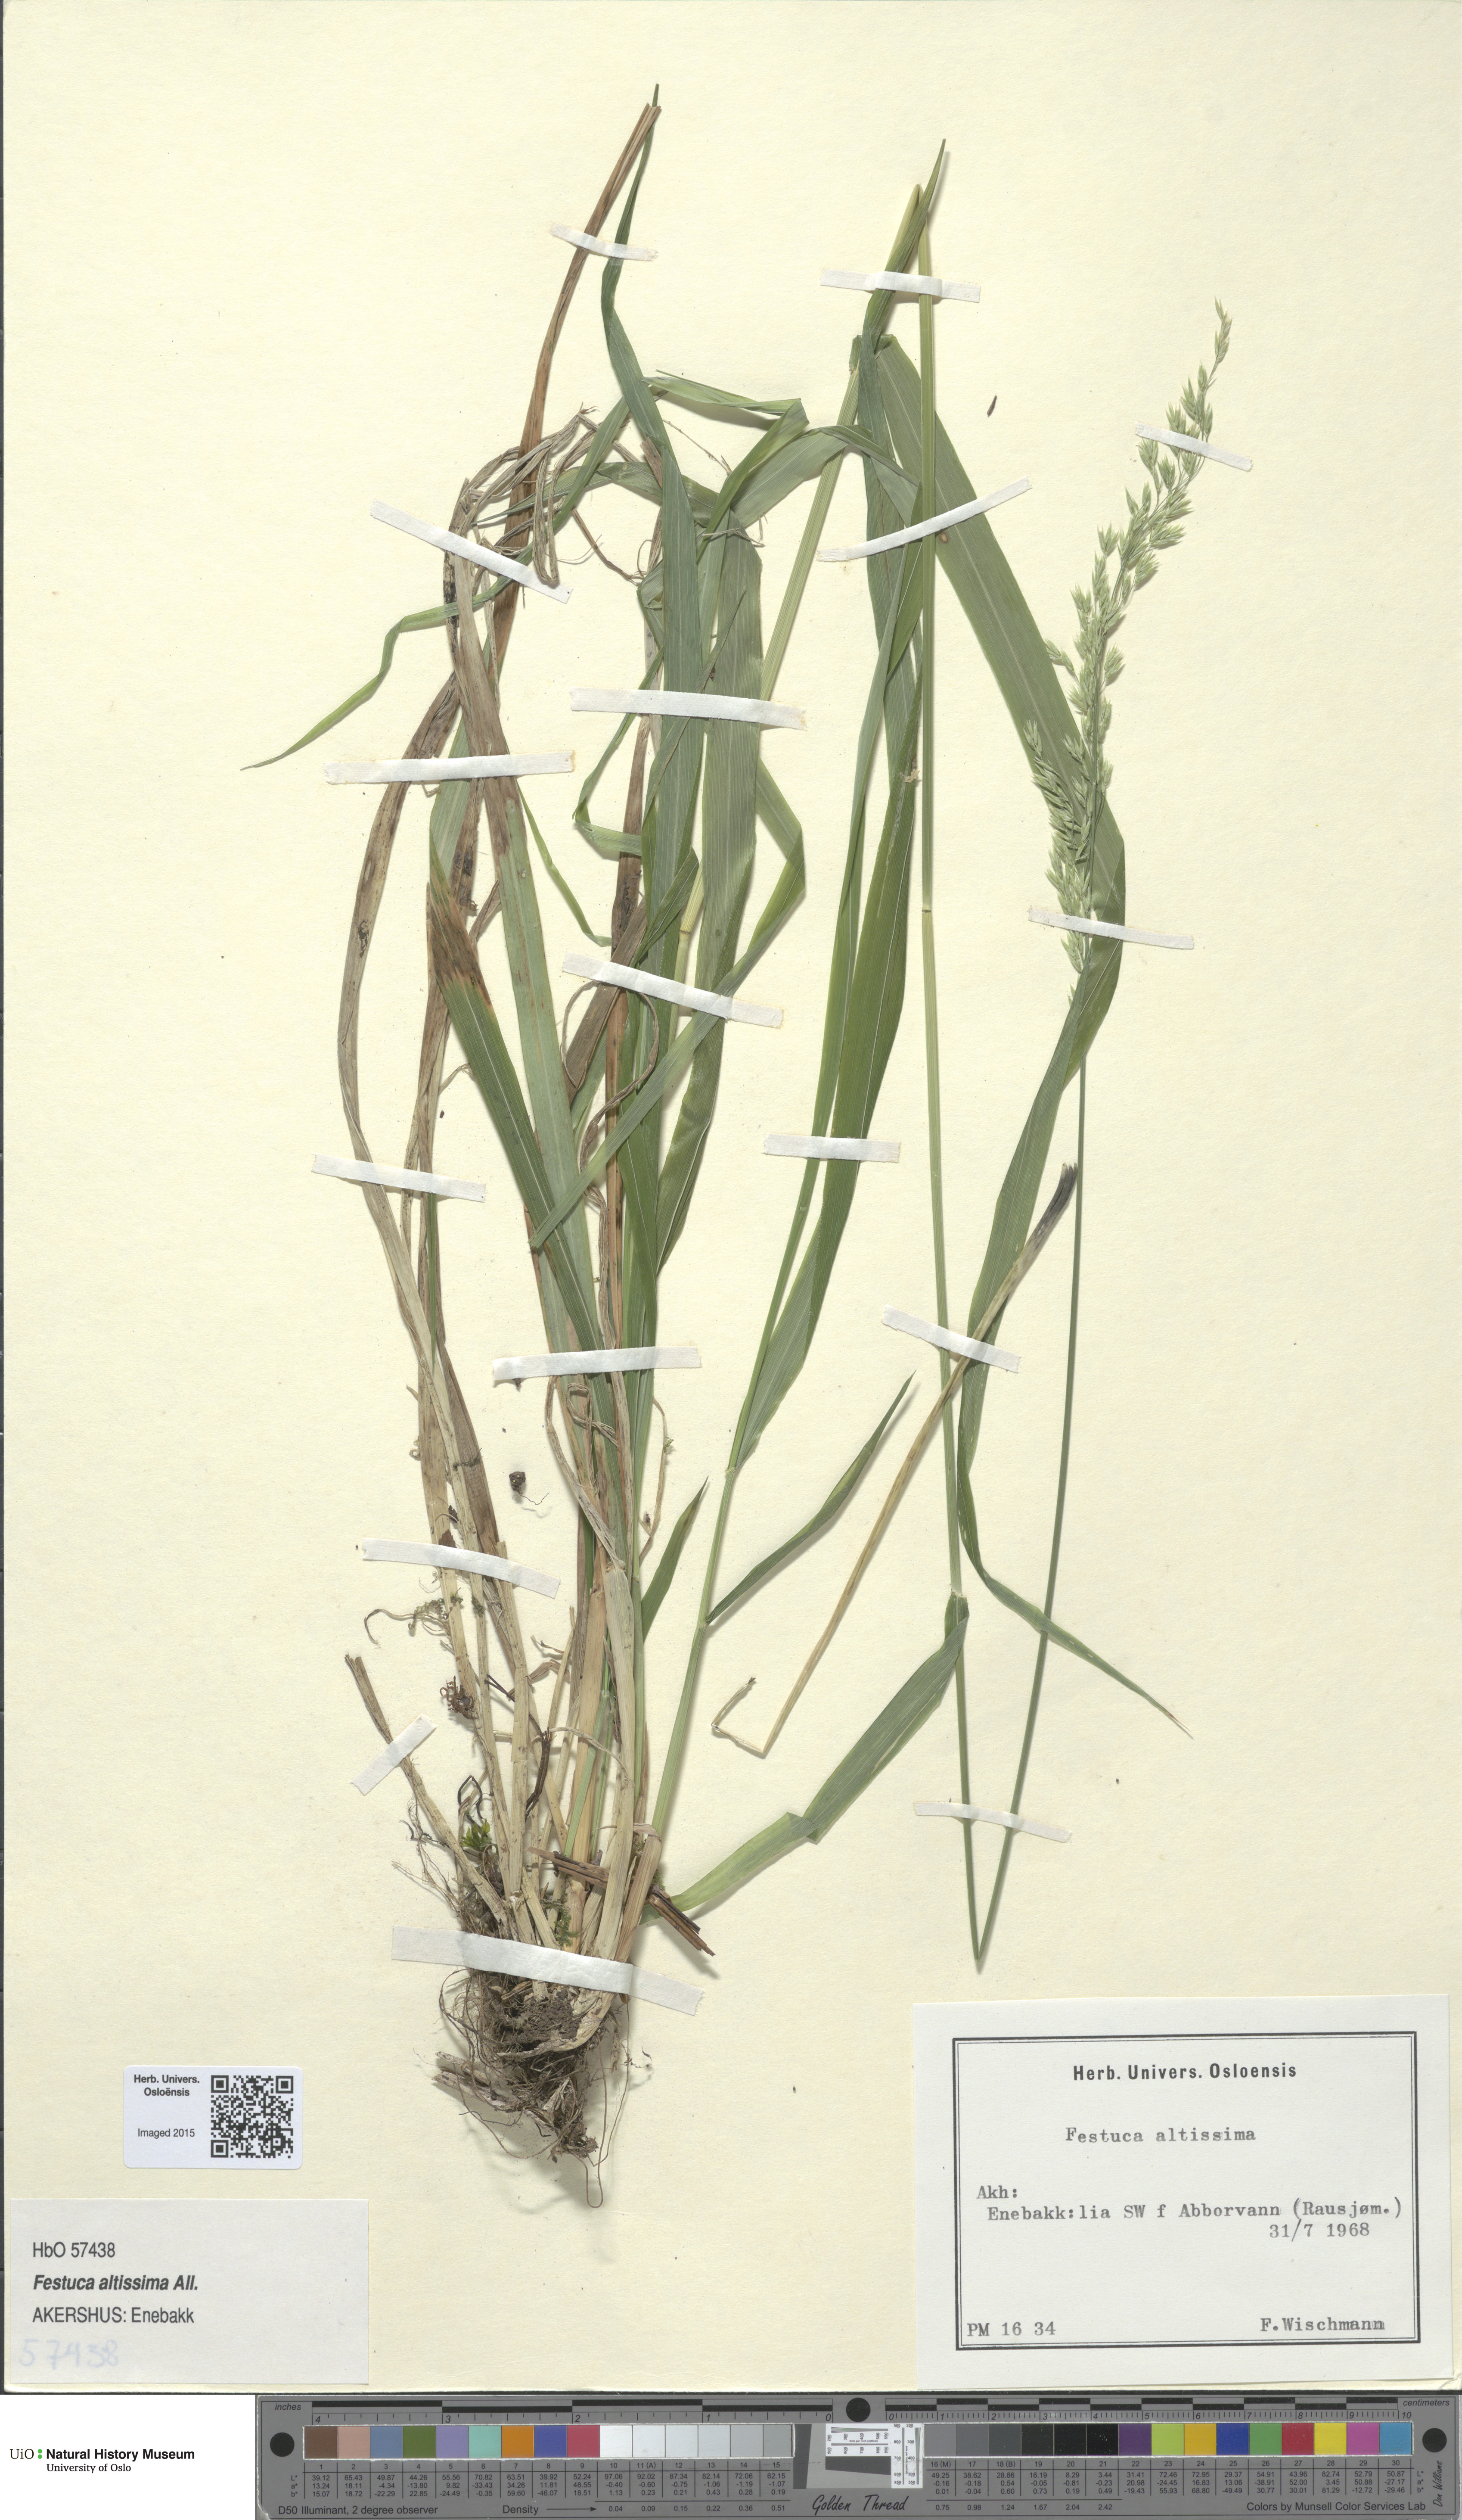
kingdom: Plantae
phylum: Tracheophyta
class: Liliopsida
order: Poales
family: Poaceae
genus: Festuca
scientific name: Festuca altissima
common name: Wood fescue
